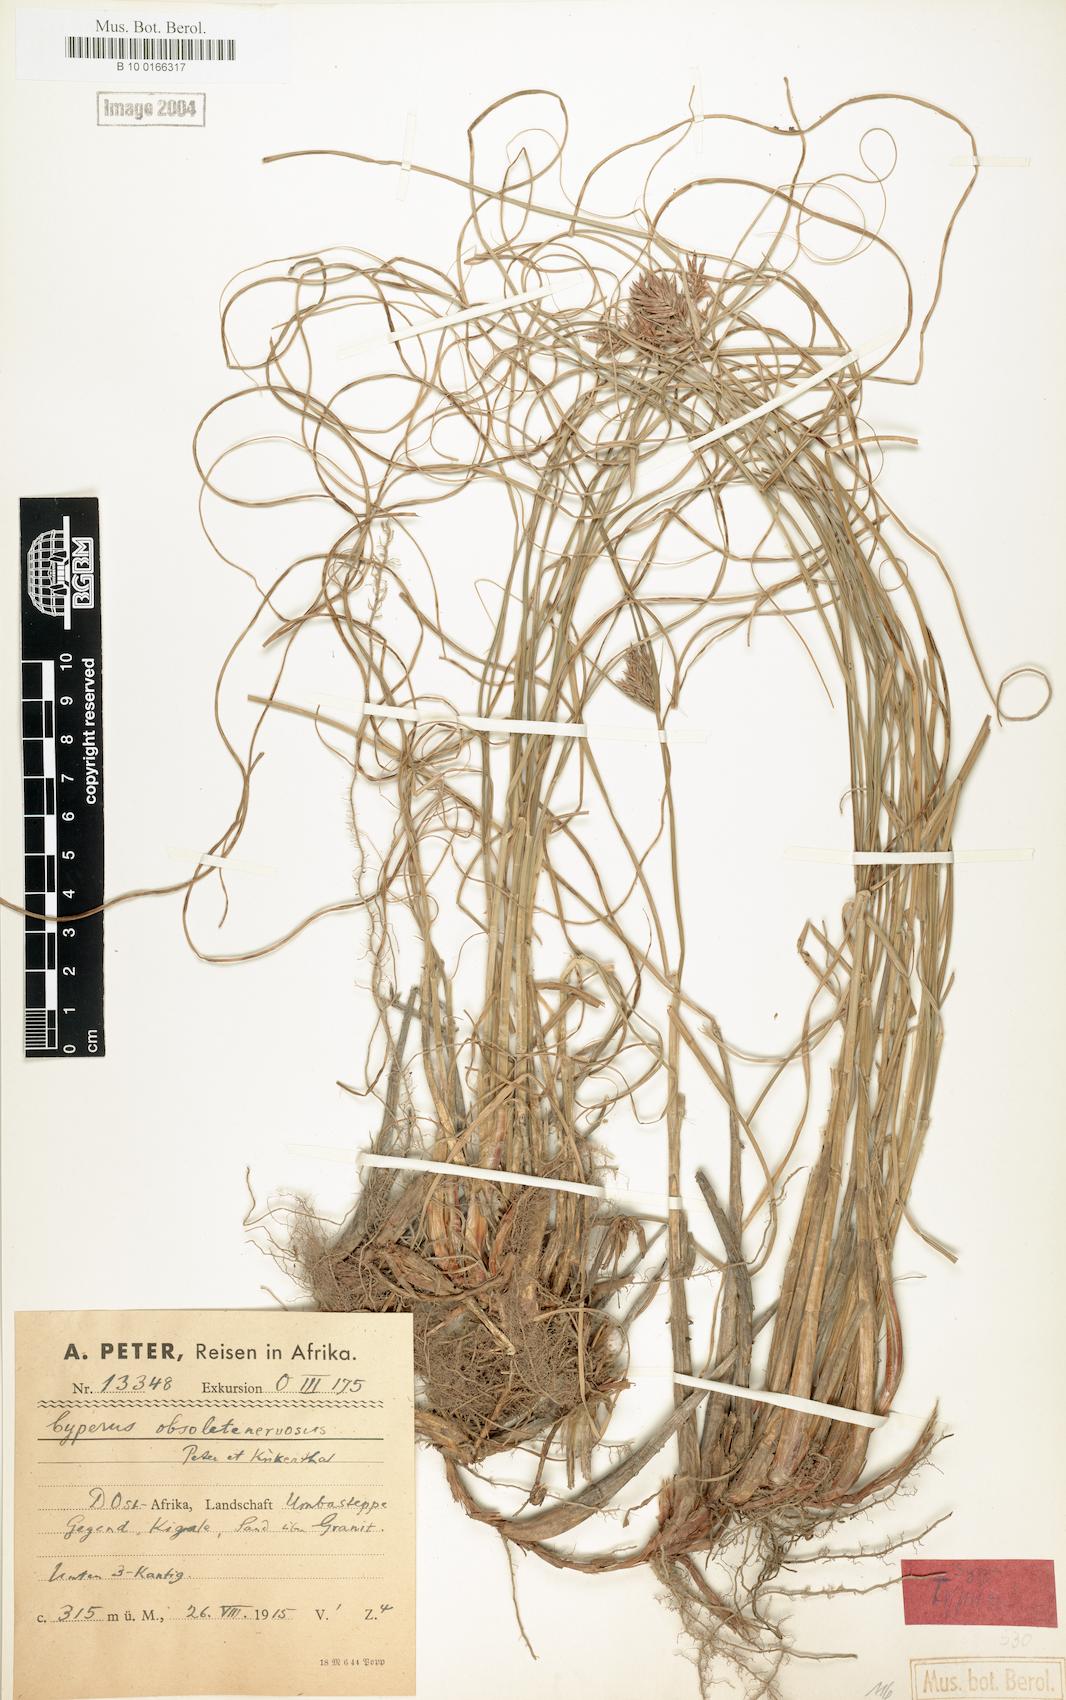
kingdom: Plantae
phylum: Tracheophyta
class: Liliopsida
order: Poales
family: Cyperaceae
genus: Cyperus
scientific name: Cyperus vestitus
